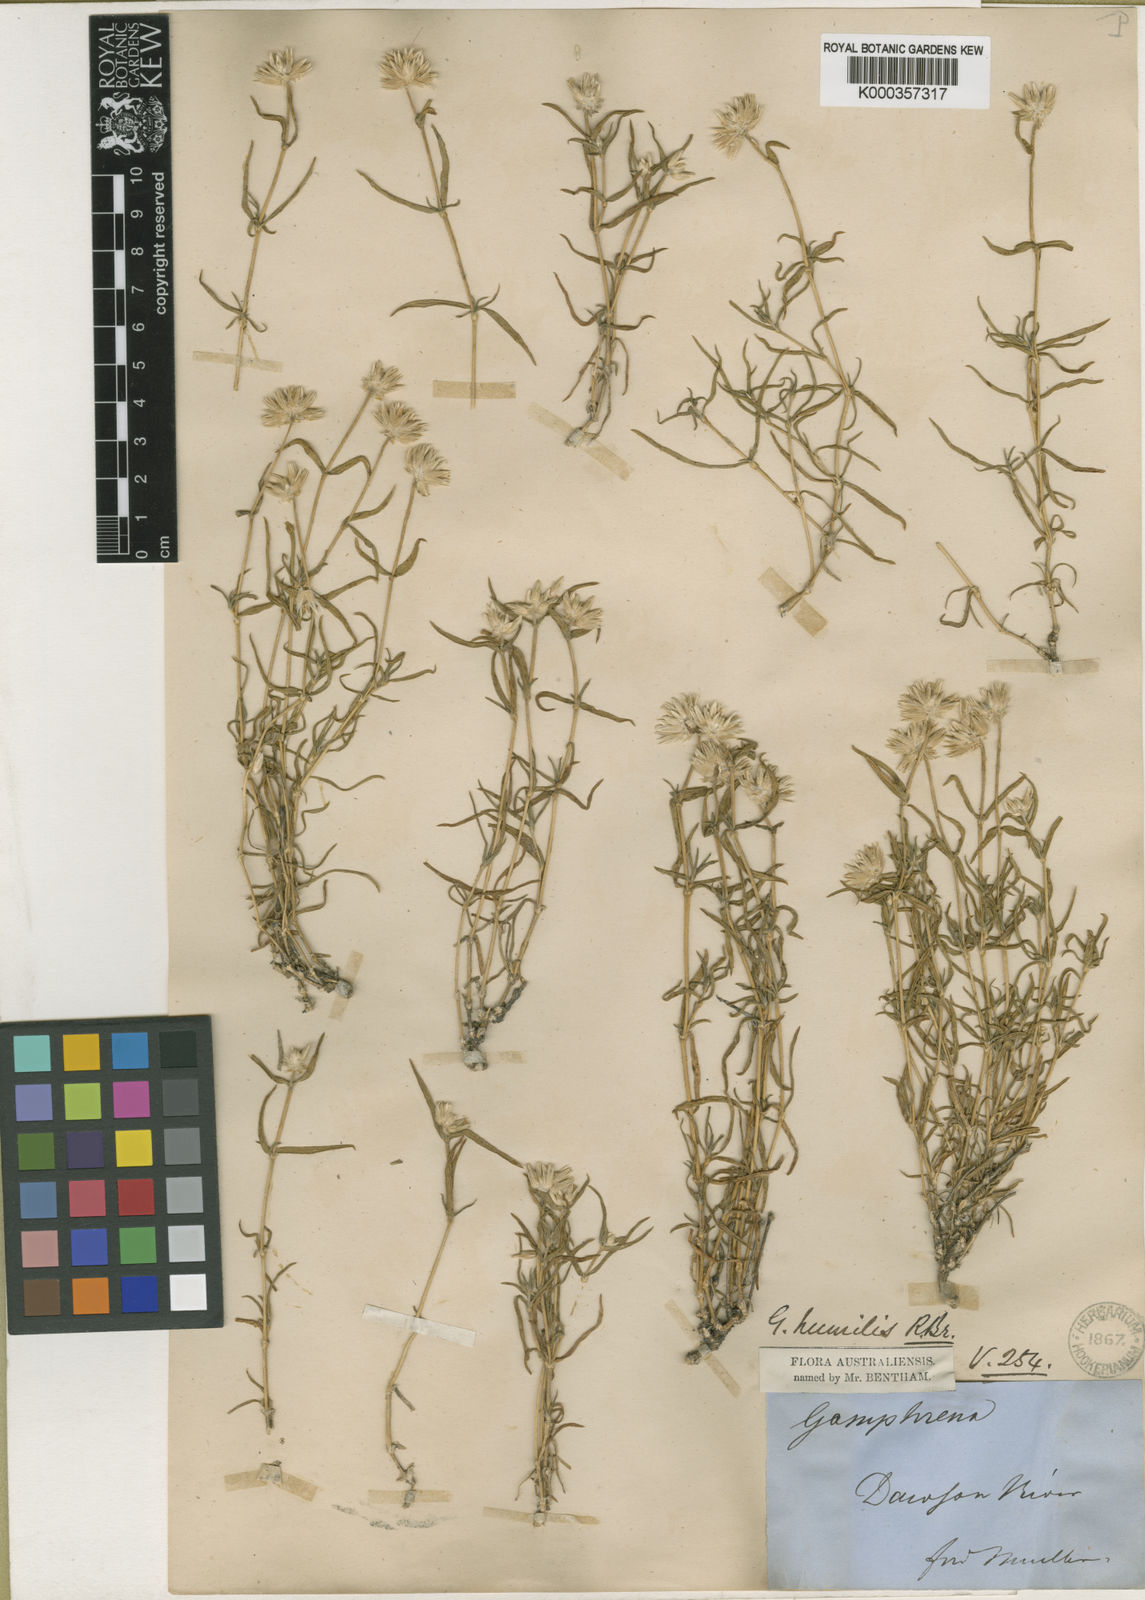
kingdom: Plantae
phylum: Tracheophyta
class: Magnoliopsida
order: Caryophyllales
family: Amaranthaceae
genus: Gomphrena
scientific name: Gomphrena humilis
